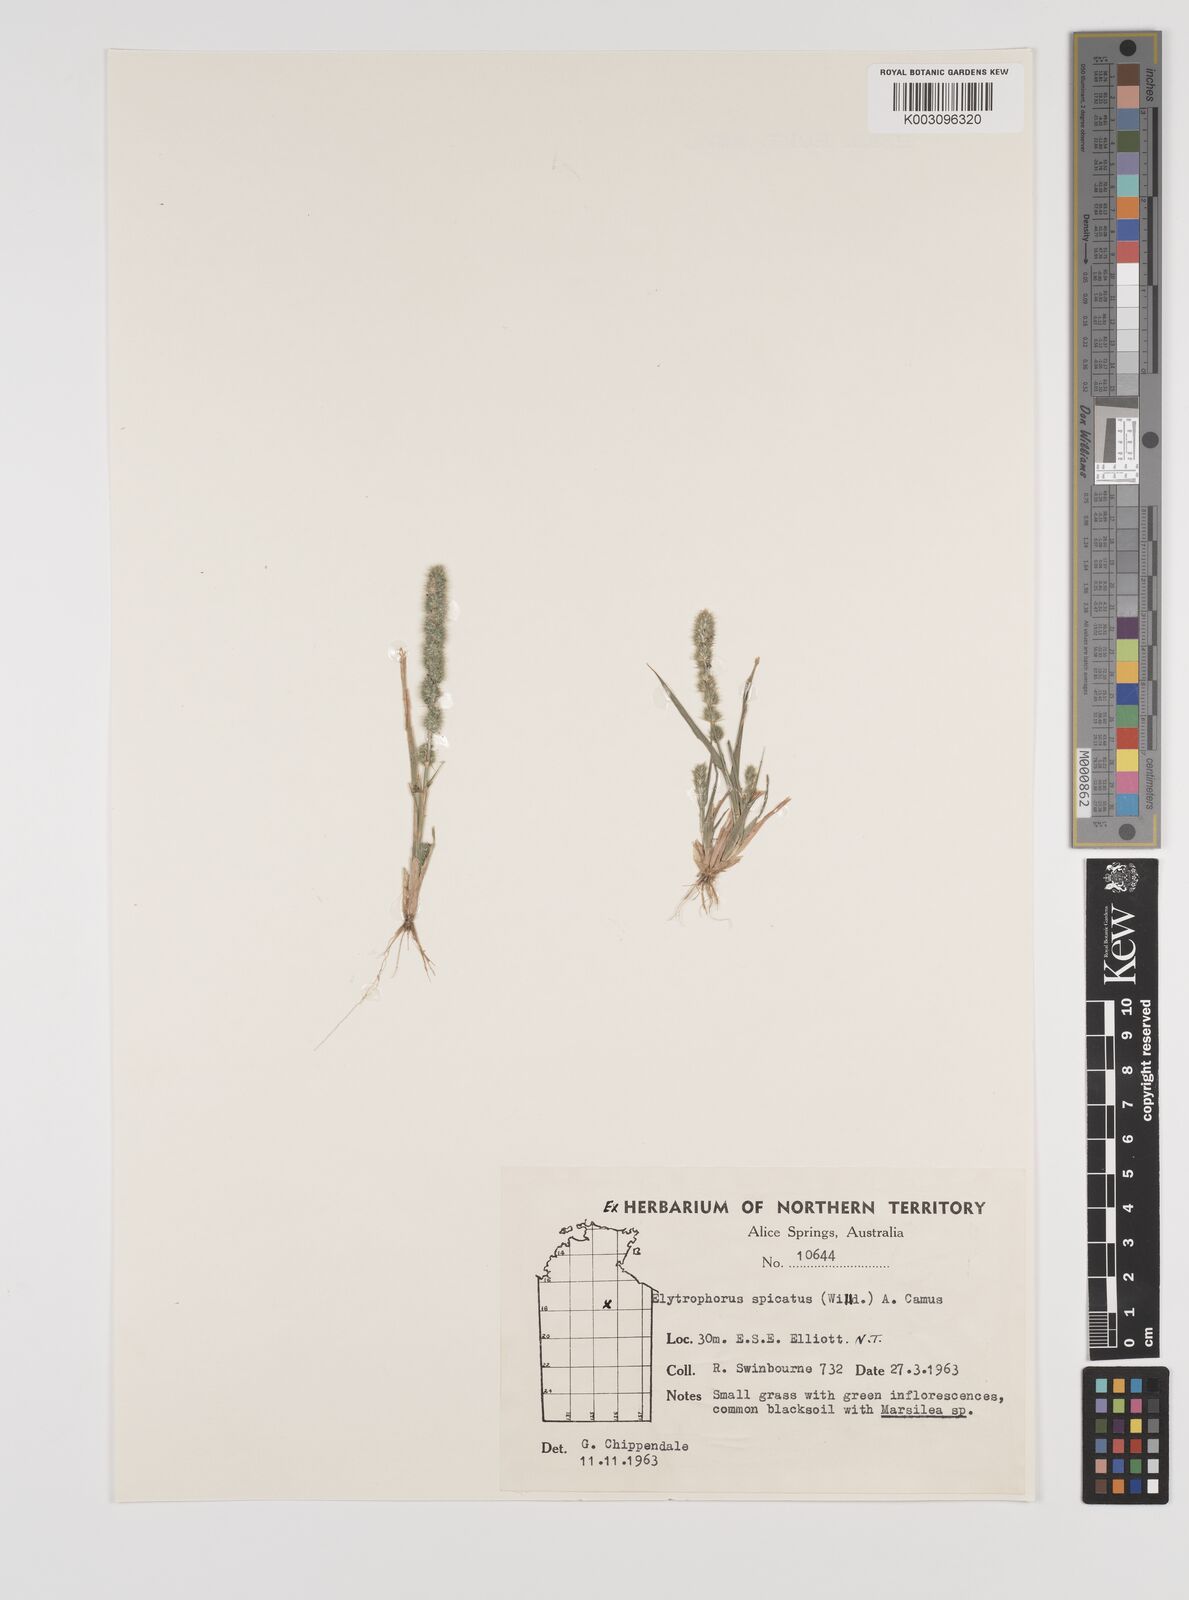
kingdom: Plantae
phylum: Tracheophyta
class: Liliopsida
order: Poales
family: Poaceae
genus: Elytrophorus
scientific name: Elytrophorus spicatus
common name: Spike grass
